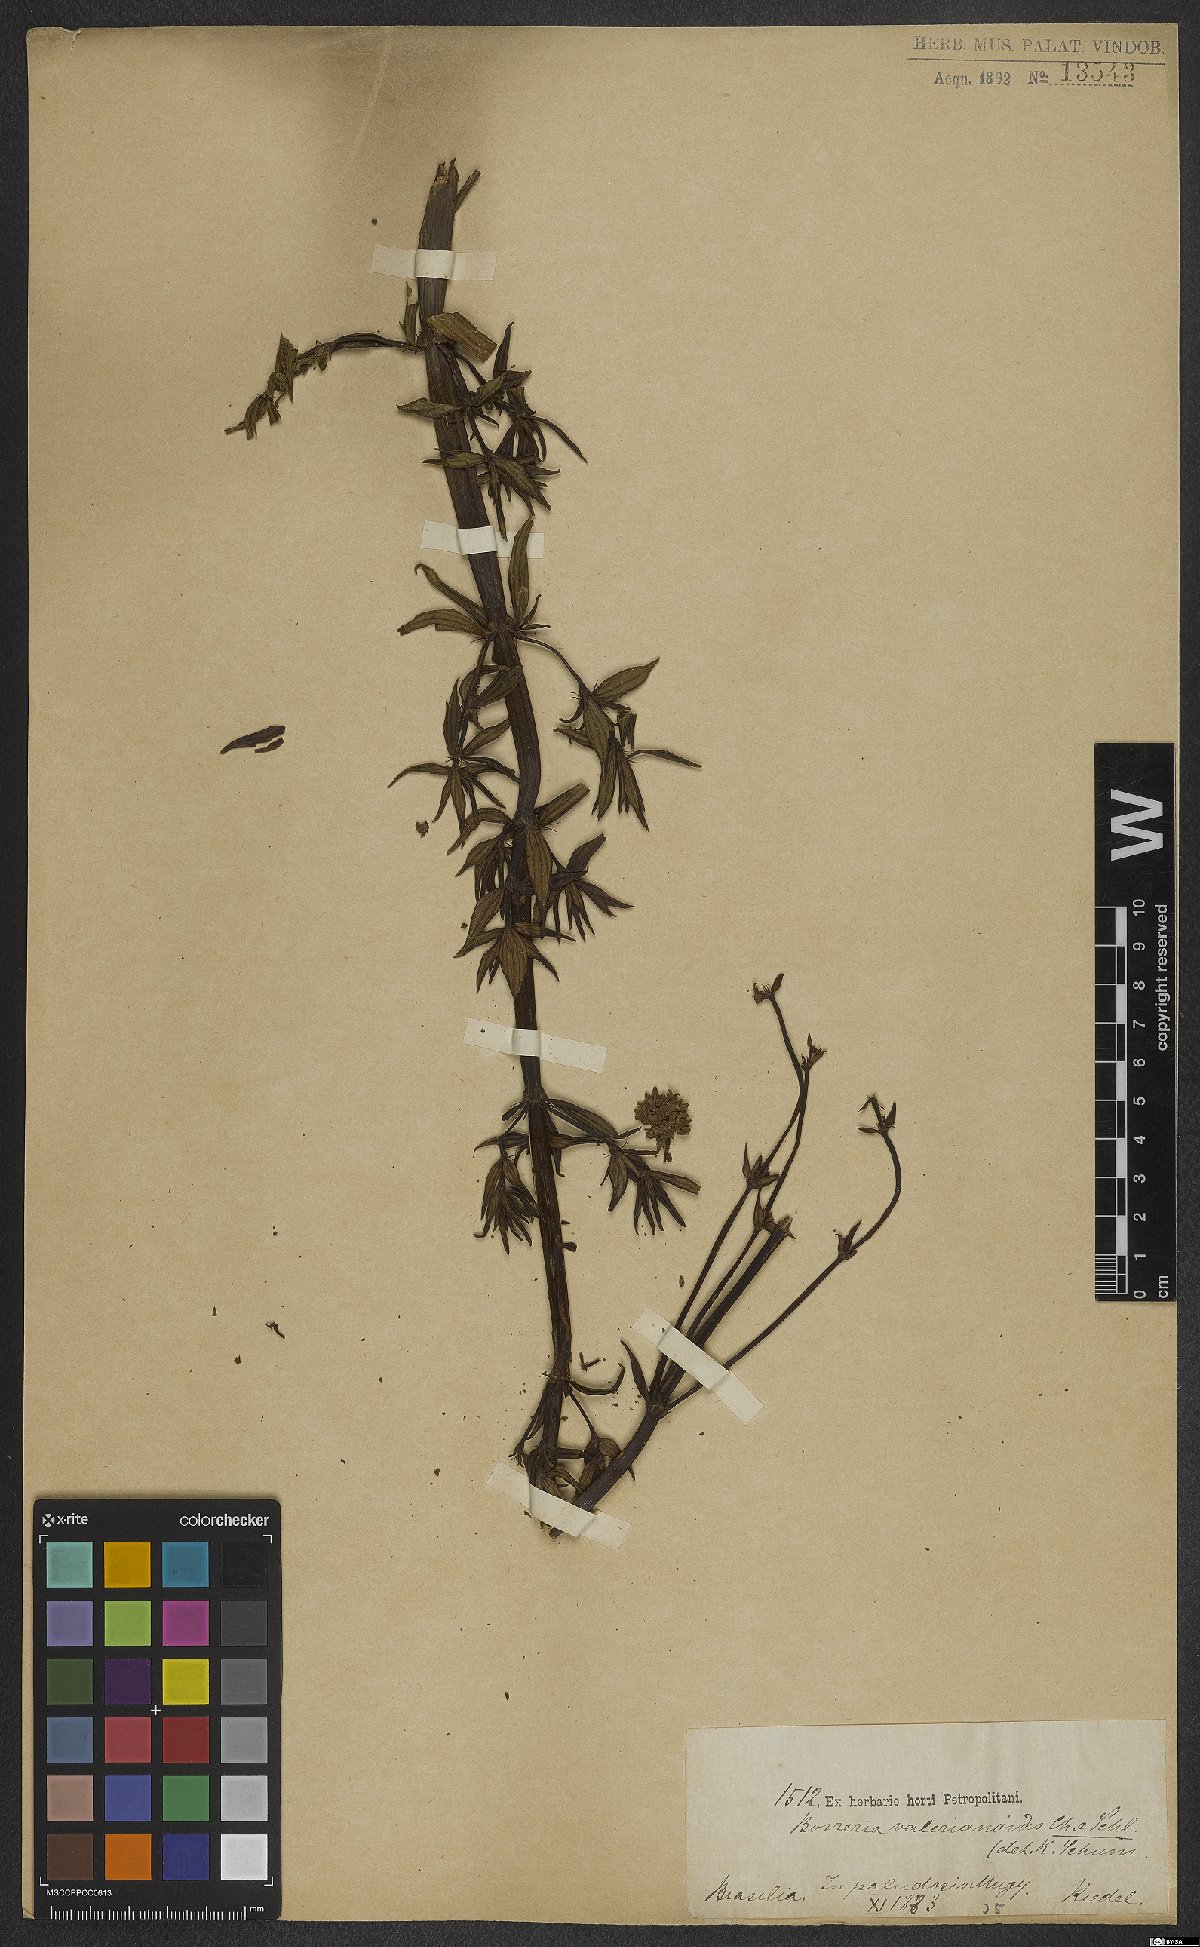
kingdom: Plantae
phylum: Tracheophyta
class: Magnoliopsida
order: Gentianales
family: Rubiaceae
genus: Galianthe
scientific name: Galianthe valerianoides
